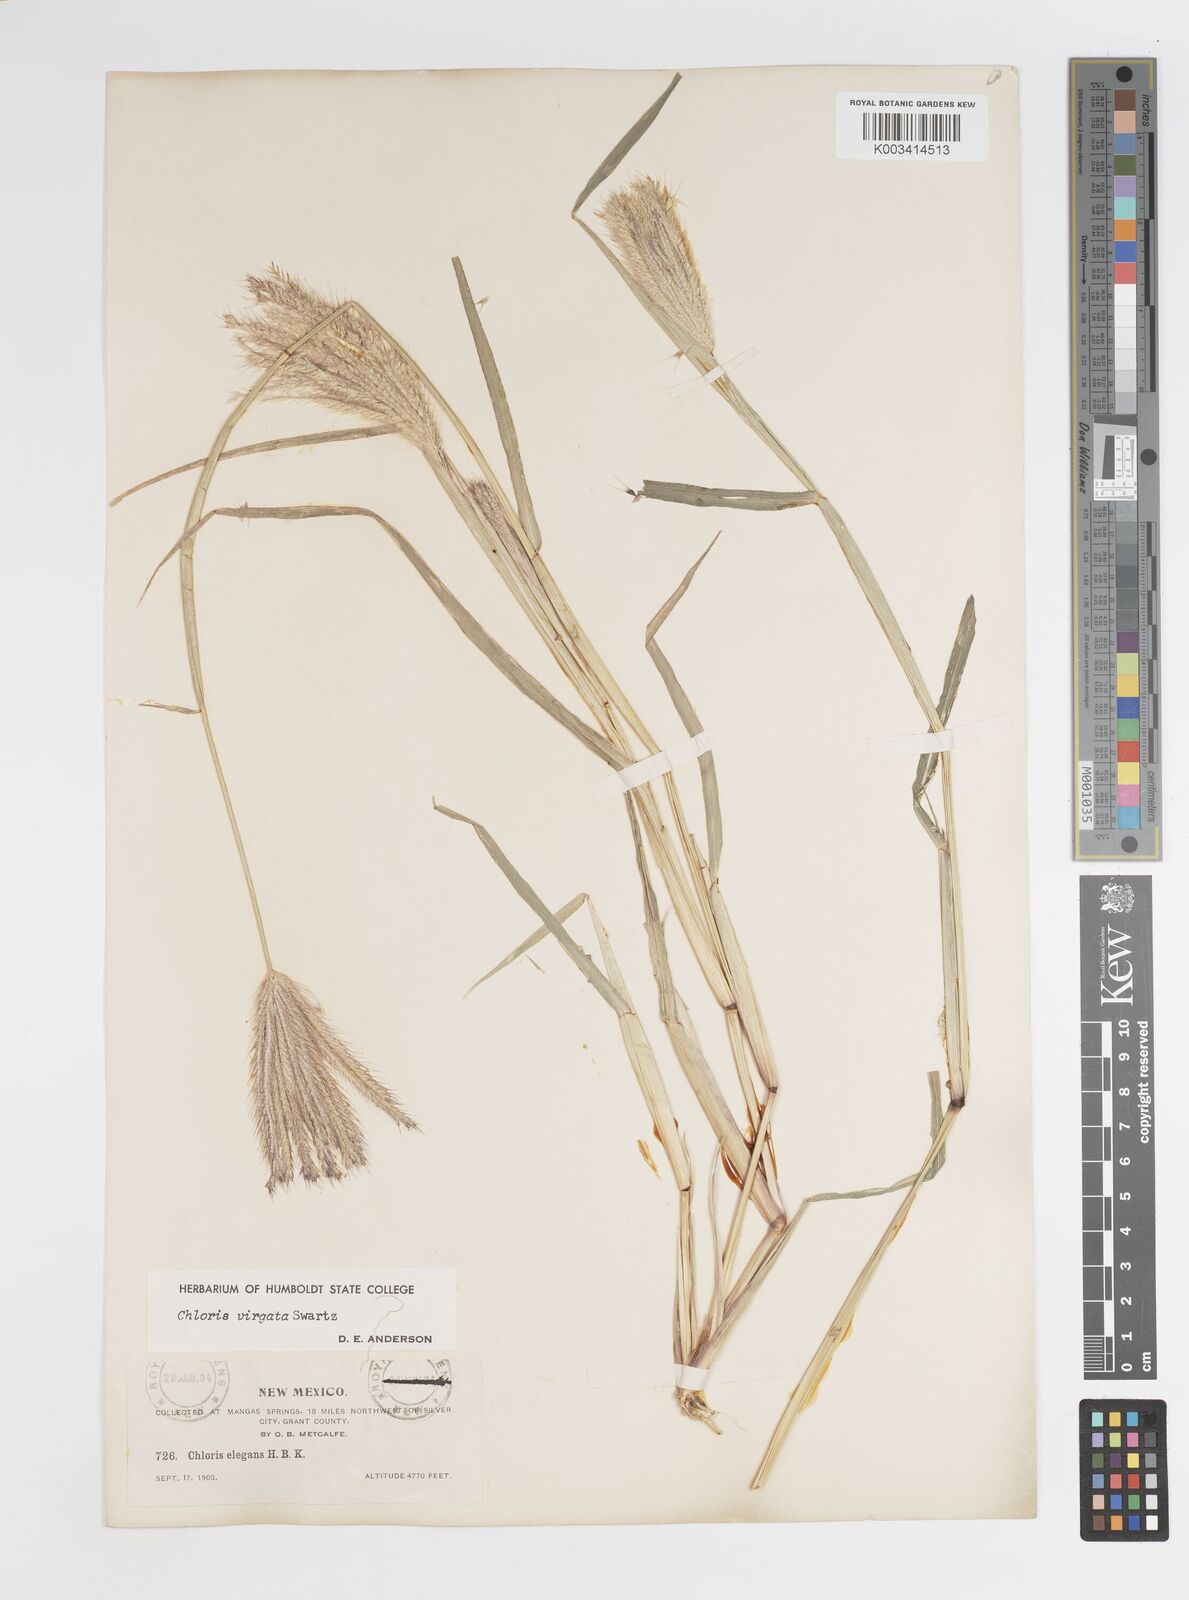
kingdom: Plantae
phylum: Tracheophyta
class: Liliopsida
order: Poales
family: Poaceae
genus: Chloris
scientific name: Chloris virgata
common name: Feathery rhodes-grass
